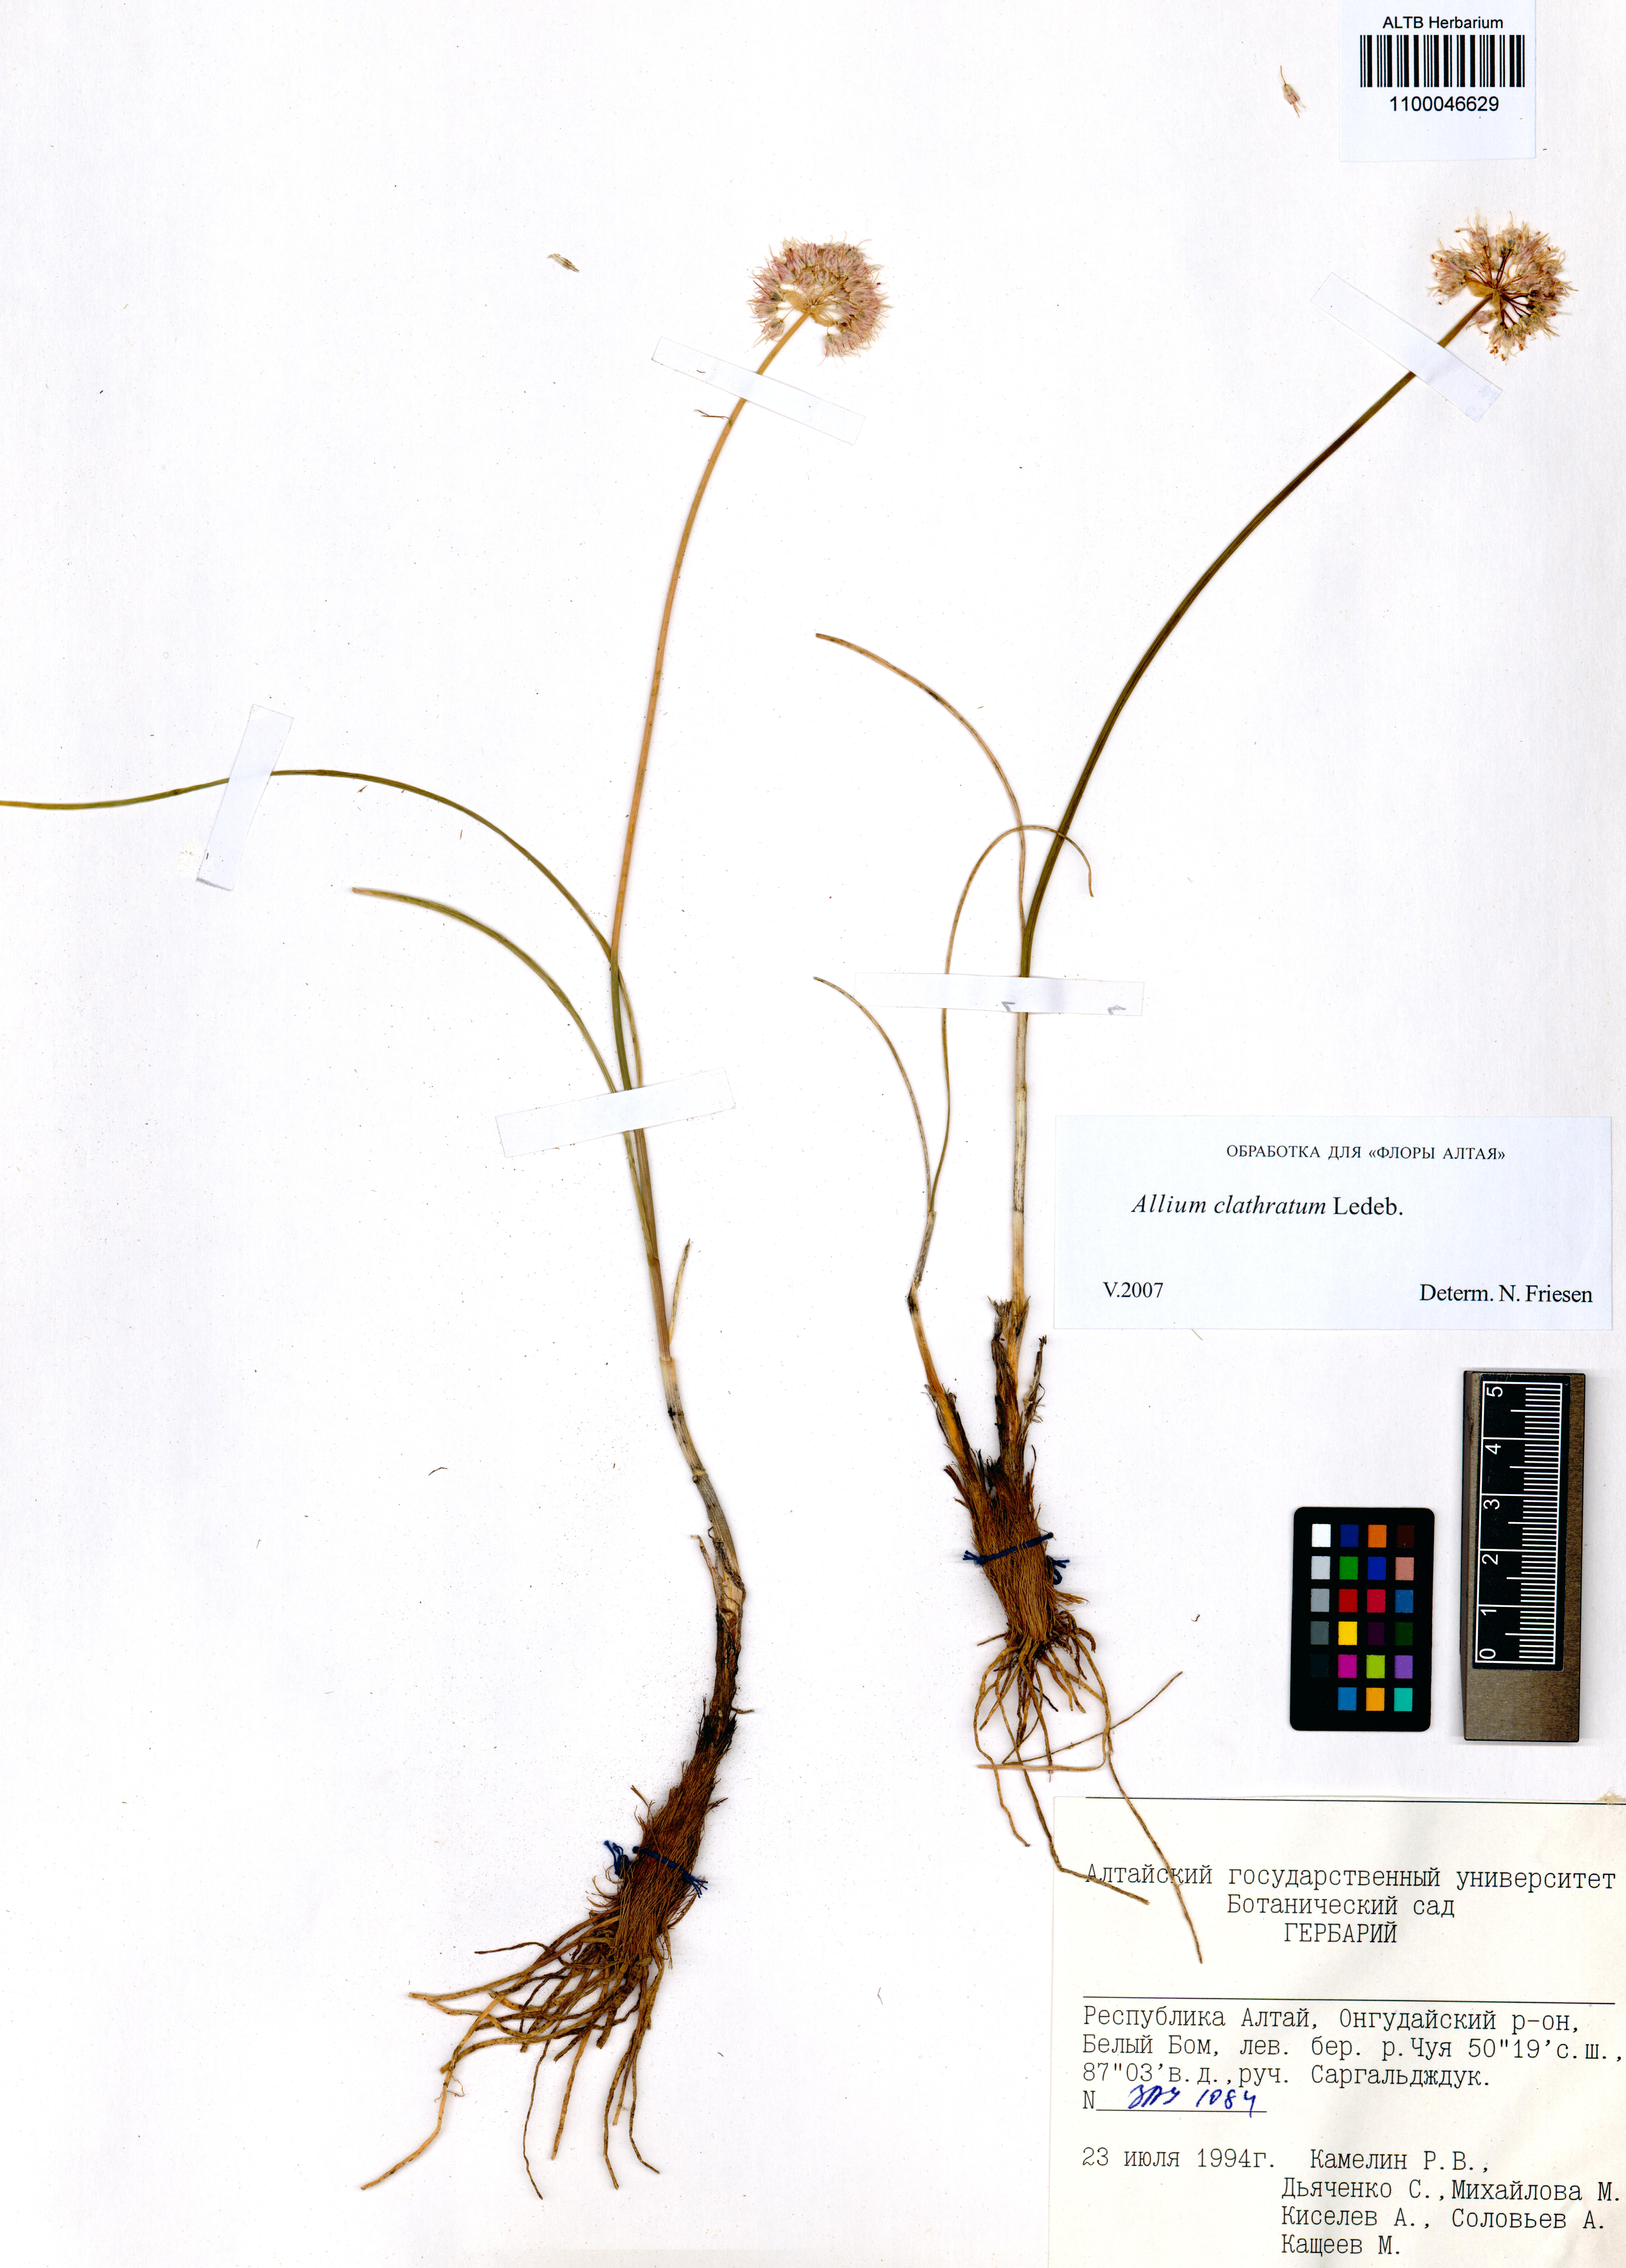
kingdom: Plantae
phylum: Tracheophyta
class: Liliopsida
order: Asparagales
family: Amaryllidaceae
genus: Allium
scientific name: Allium clathratum
